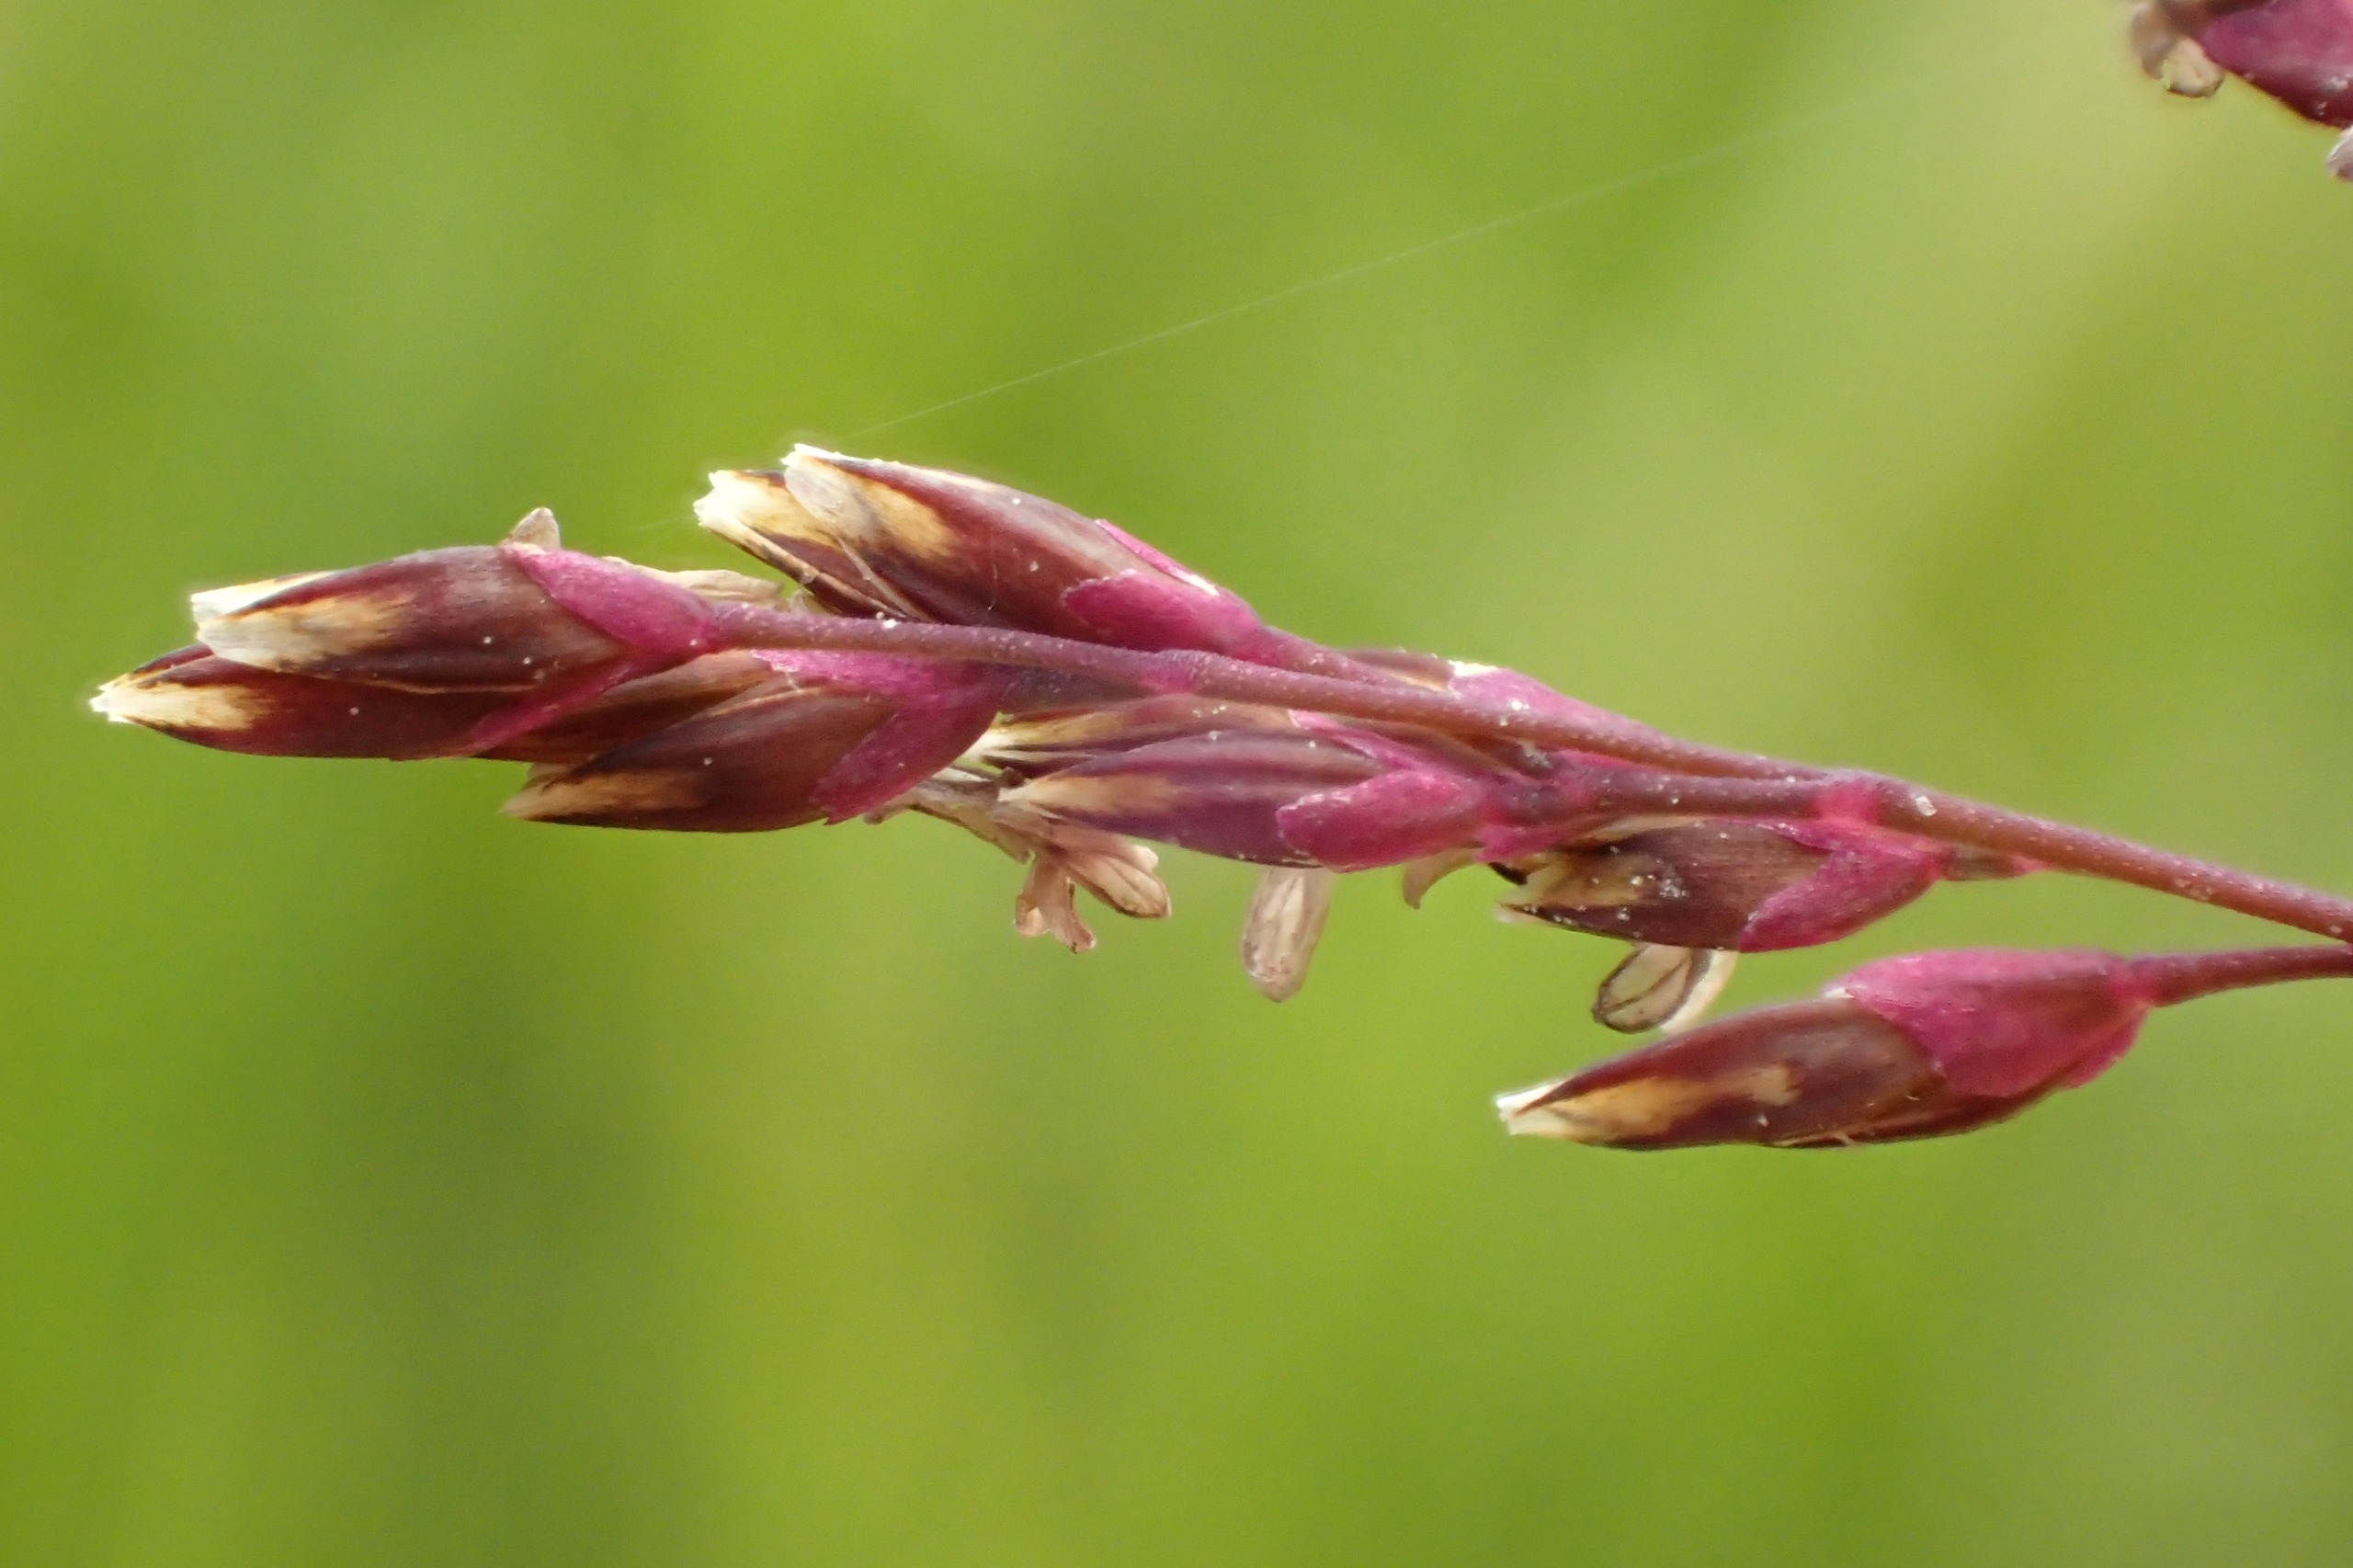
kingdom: Plantae
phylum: Tracheophyta
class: Liliopsida
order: Poales
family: Poaceae
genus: Catabrosa
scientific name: Catabrosa aquatica
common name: Tæppegræs
